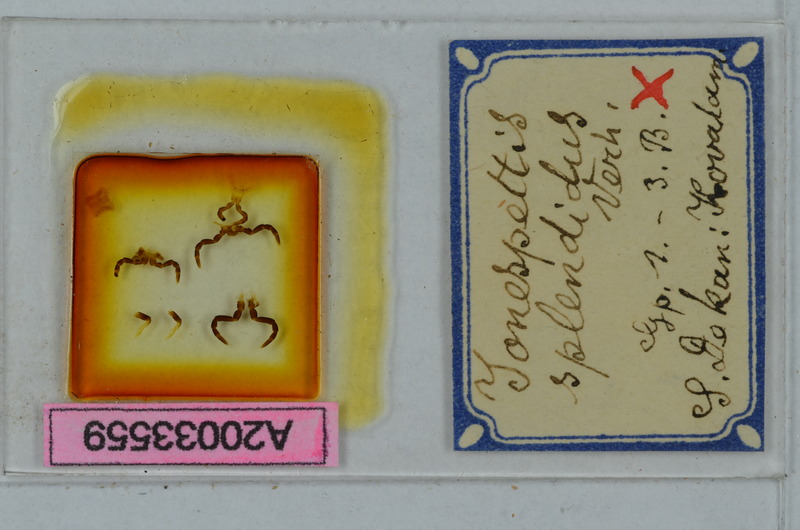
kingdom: Animalia
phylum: Arthropoda
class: Diplopoda
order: Polydesmida
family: Paradoxosomatidae
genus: Anoplodesmus
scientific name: Anoplodesmus splendidus
